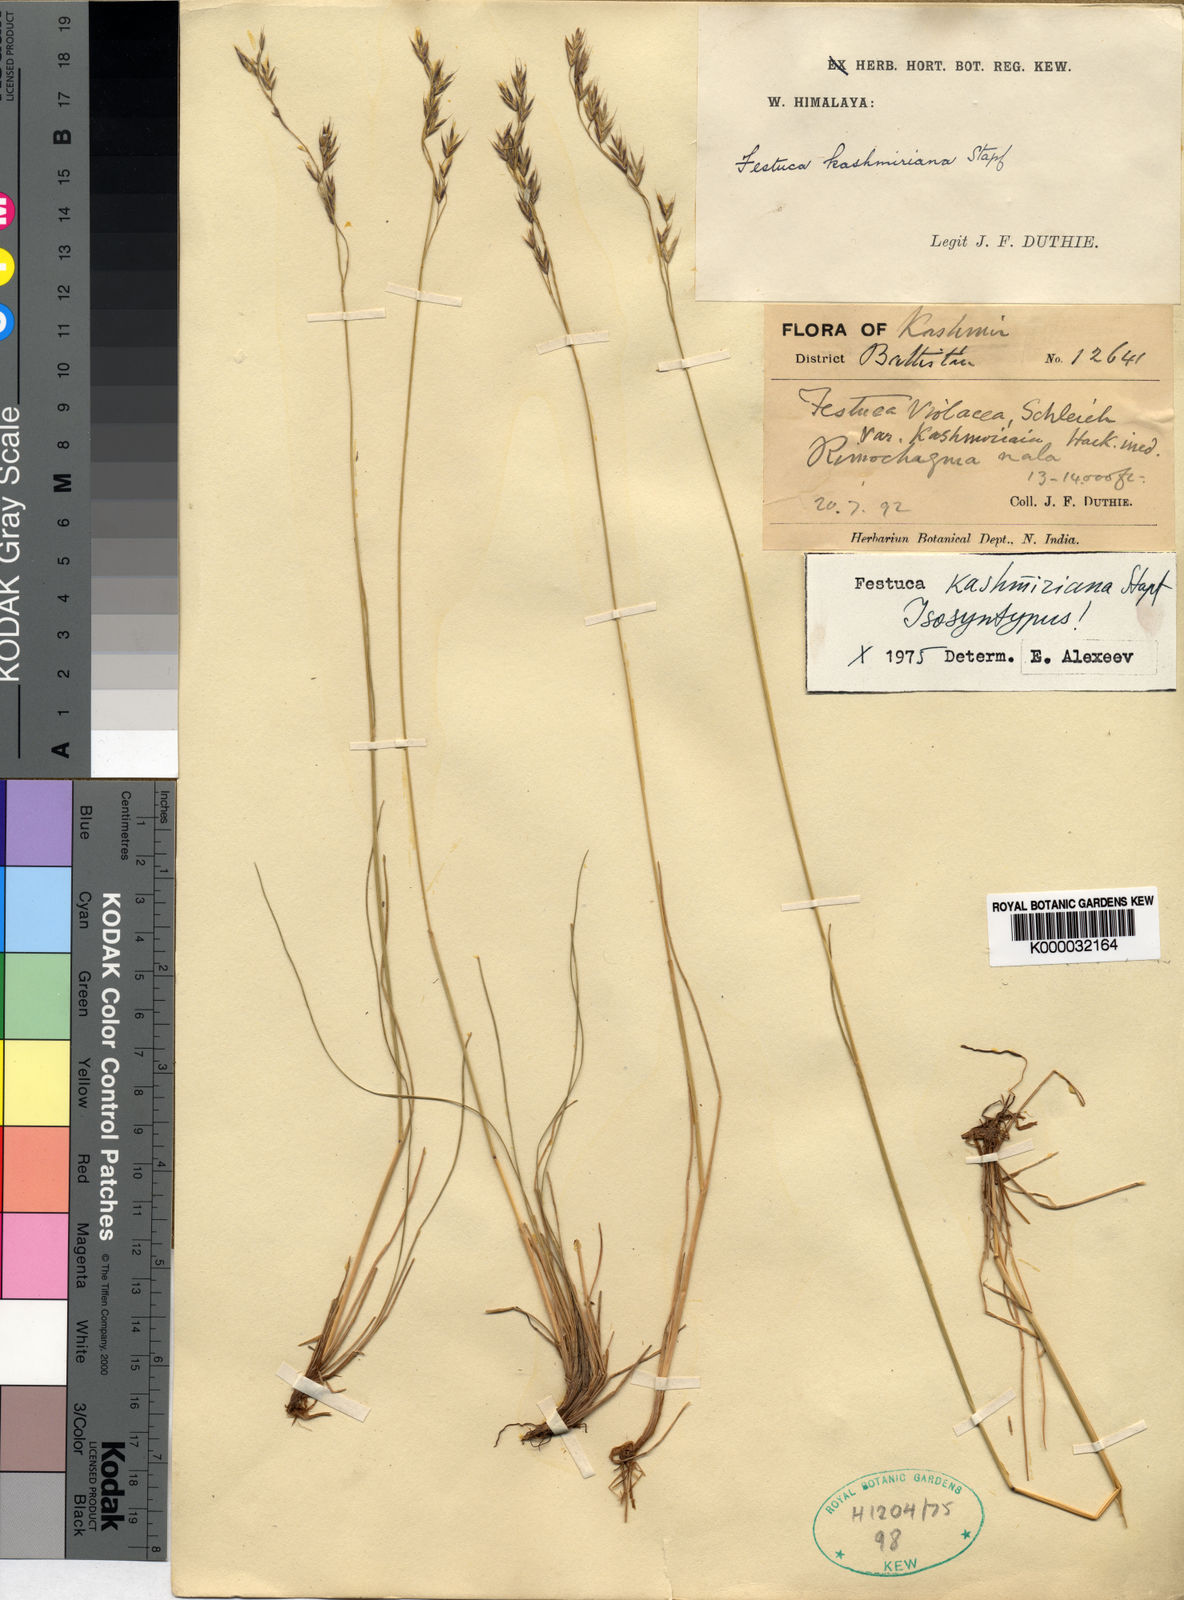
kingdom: Plantae
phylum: Tracheophyta
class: Liliopsida
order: Poales
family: Poaceae
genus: Festuca
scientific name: Festuca kashmiriana
